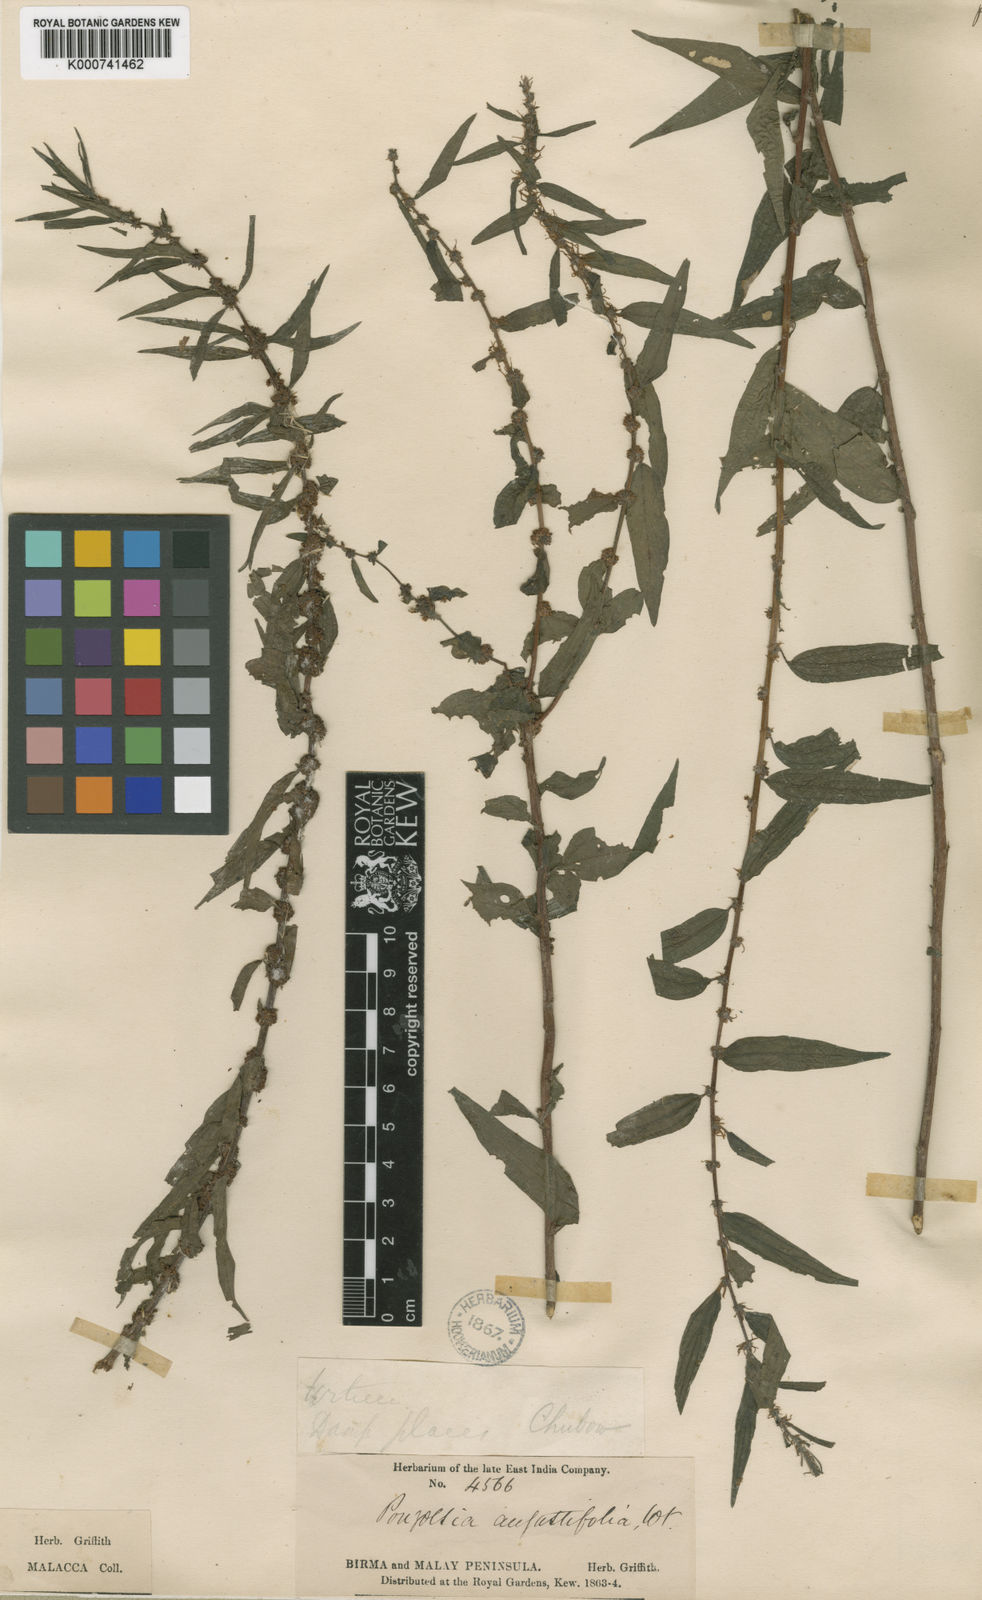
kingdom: Plantae
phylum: Tracheophyta
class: Magnoliopsida
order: Rosales
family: Urticaceae
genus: Pouzolzia
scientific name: Pouzolzia zeylanica
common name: Graceful pouzolzsbush
